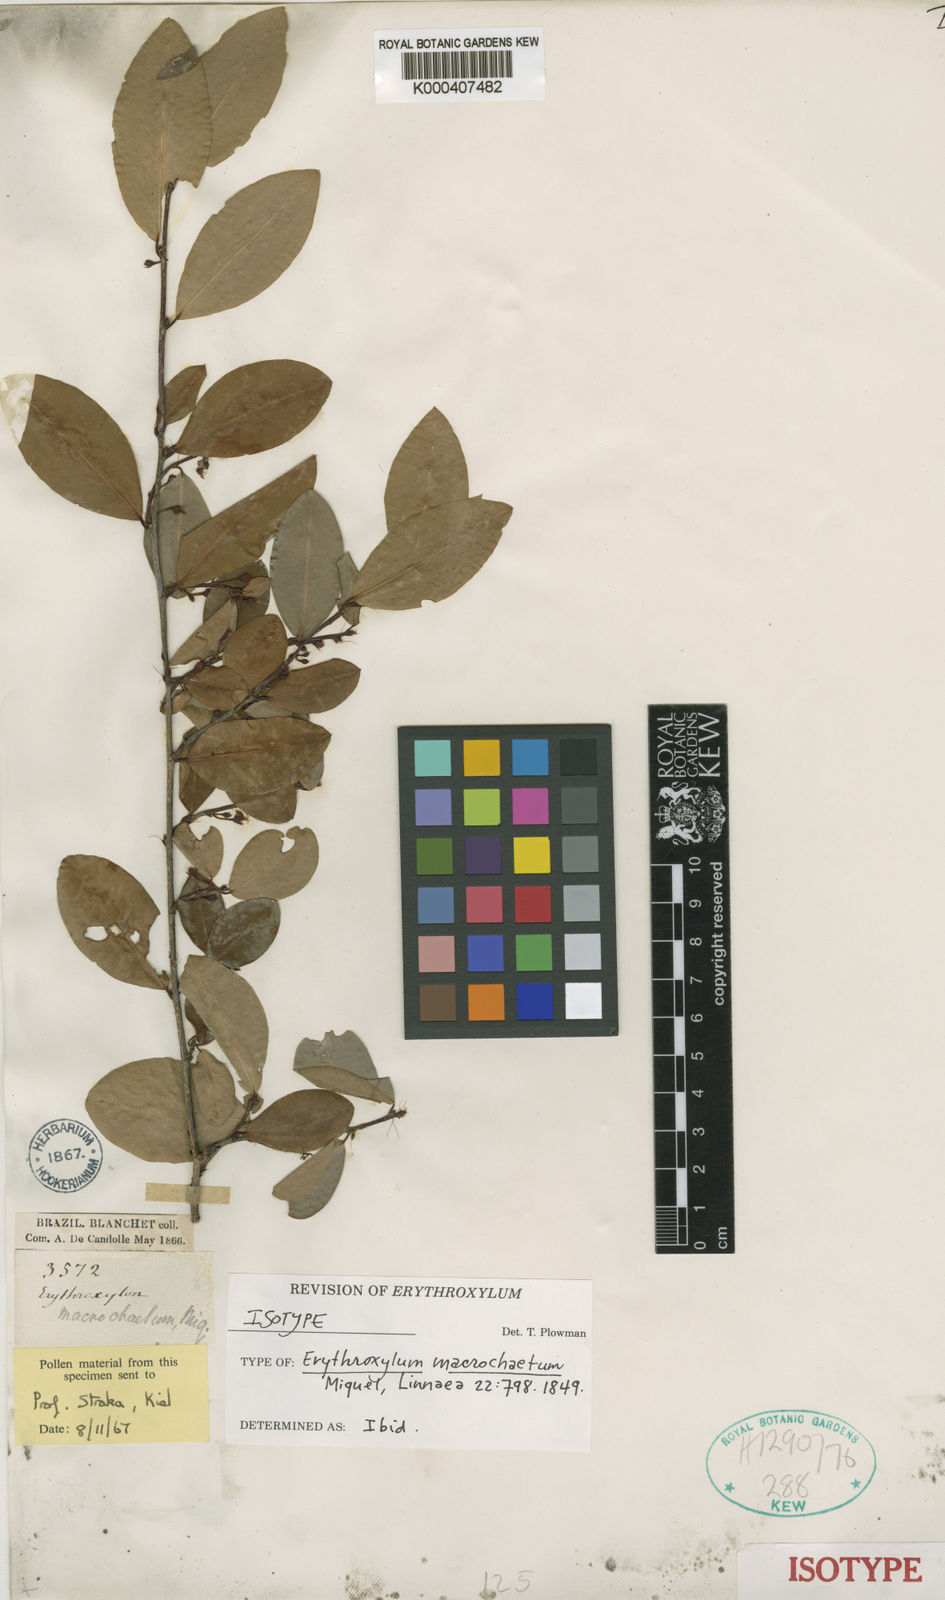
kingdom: Plantae
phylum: Tracheophyta
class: Magnoliopsida
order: Malpighiales
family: Erythroxylaceae
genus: Erythroxylum
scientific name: Erythroxylum macrochaetum
